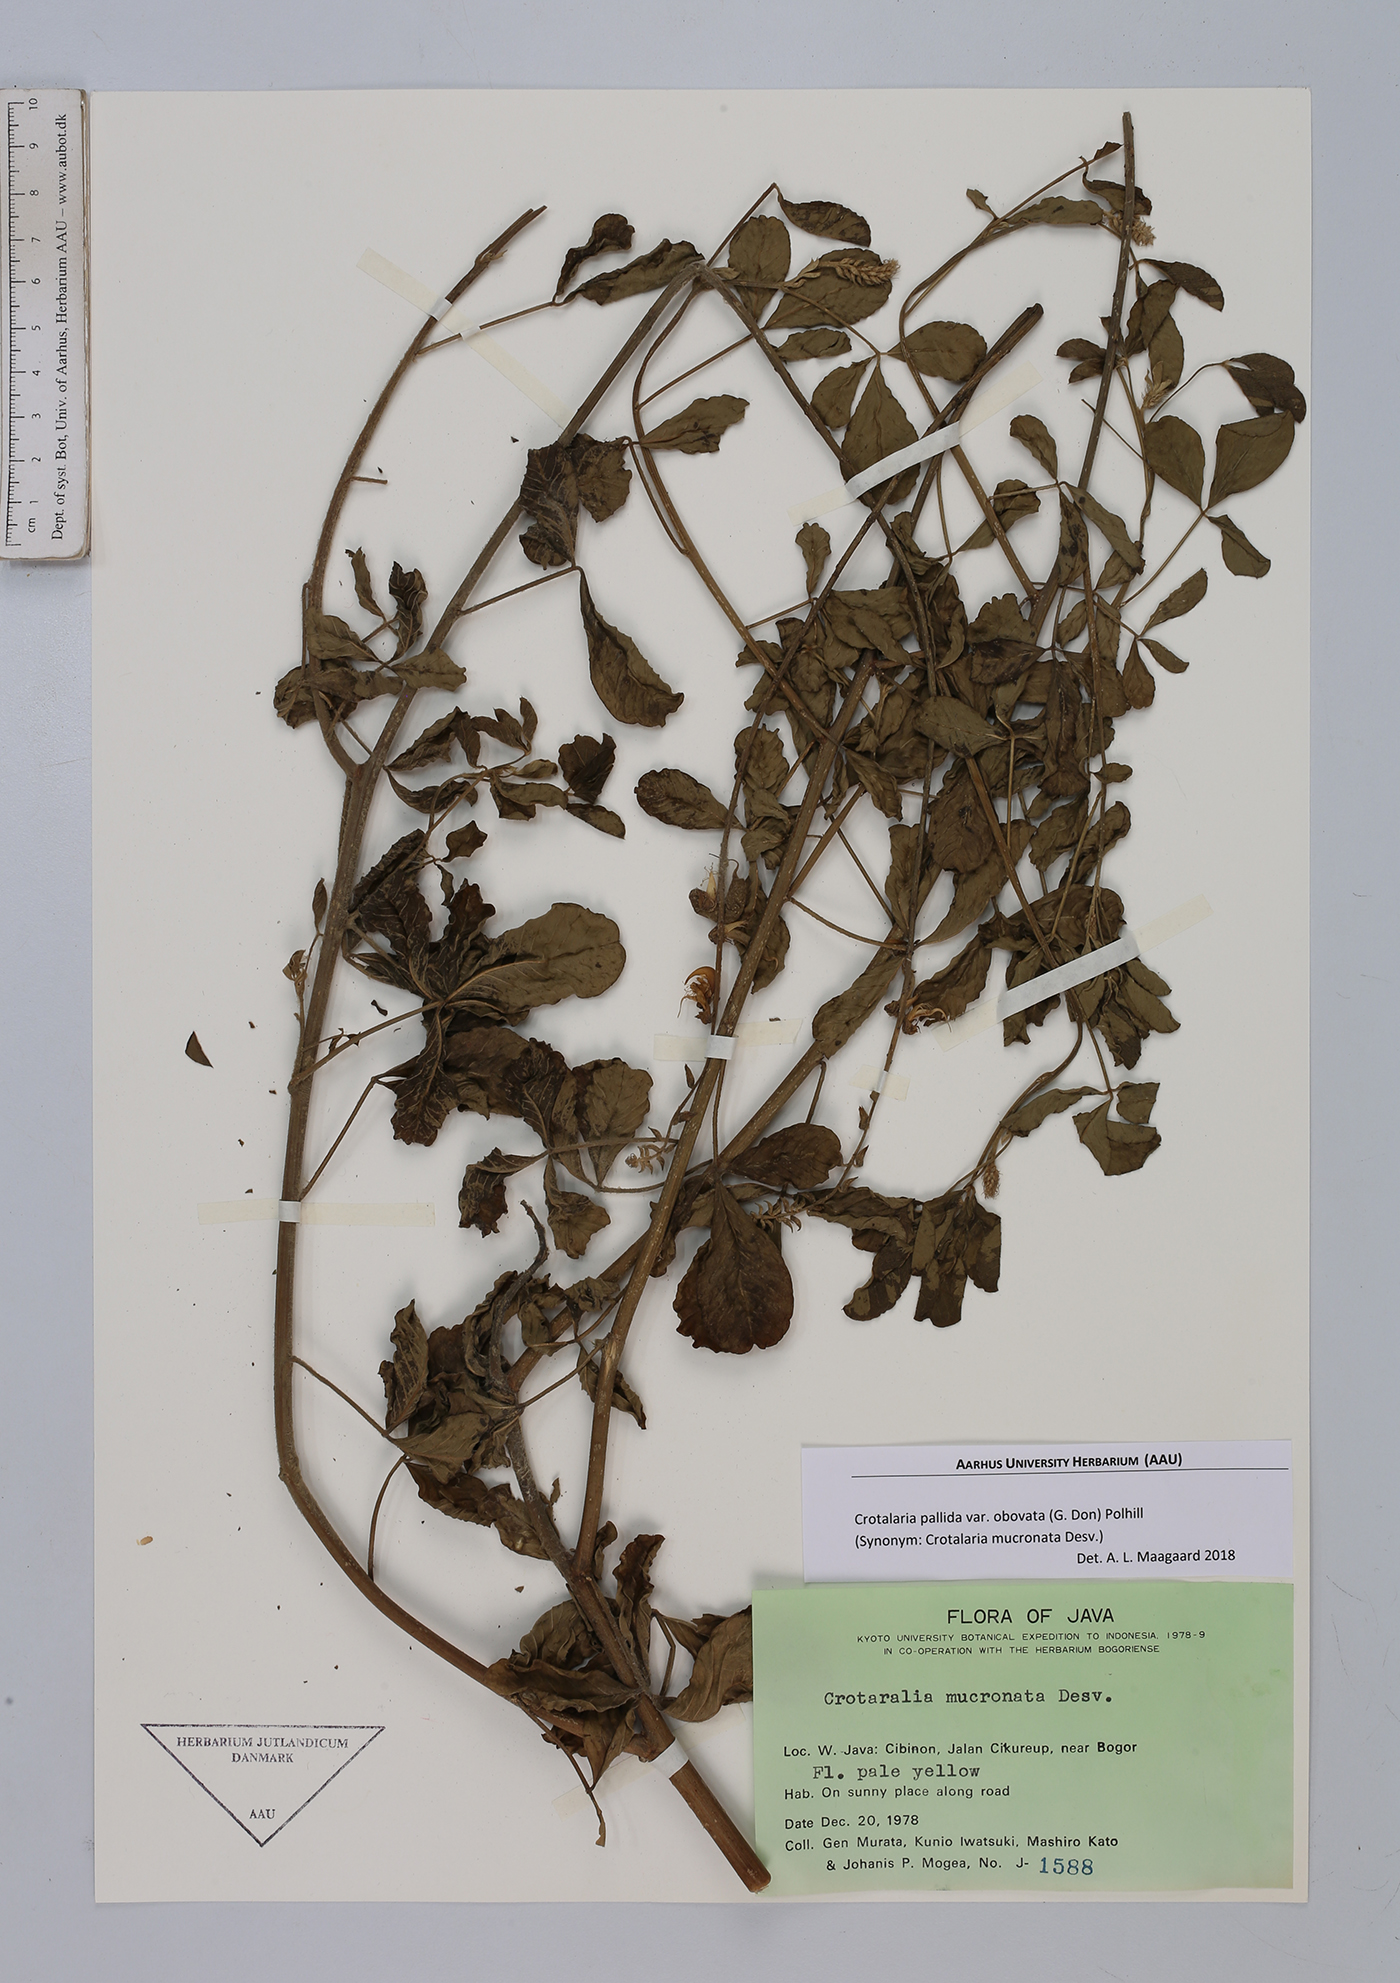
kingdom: Plantae
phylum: Tracheophyta
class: Magnoliopsida
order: Fabales
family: Fabaceae
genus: Crotalaria
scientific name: Crotalaria pallida
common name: Smooth rattlebox
